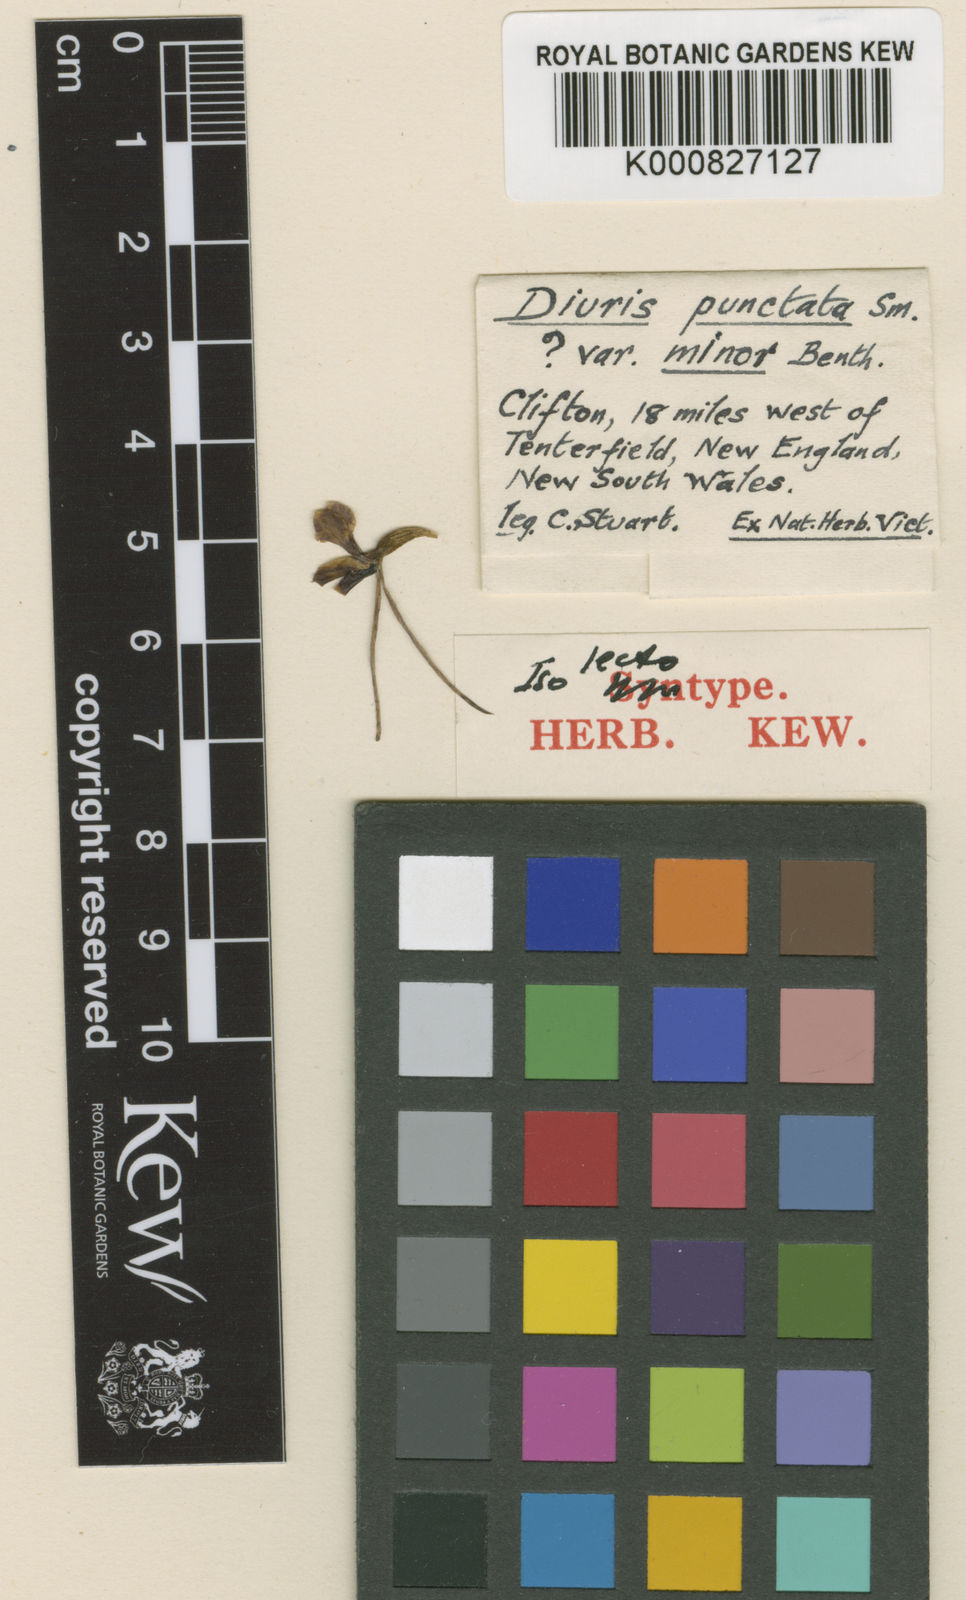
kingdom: Plantae
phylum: Tracheophyta
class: Liliopsida
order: Asparagales
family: Orchidaceae
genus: Diuris
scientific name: Diuris punctata
